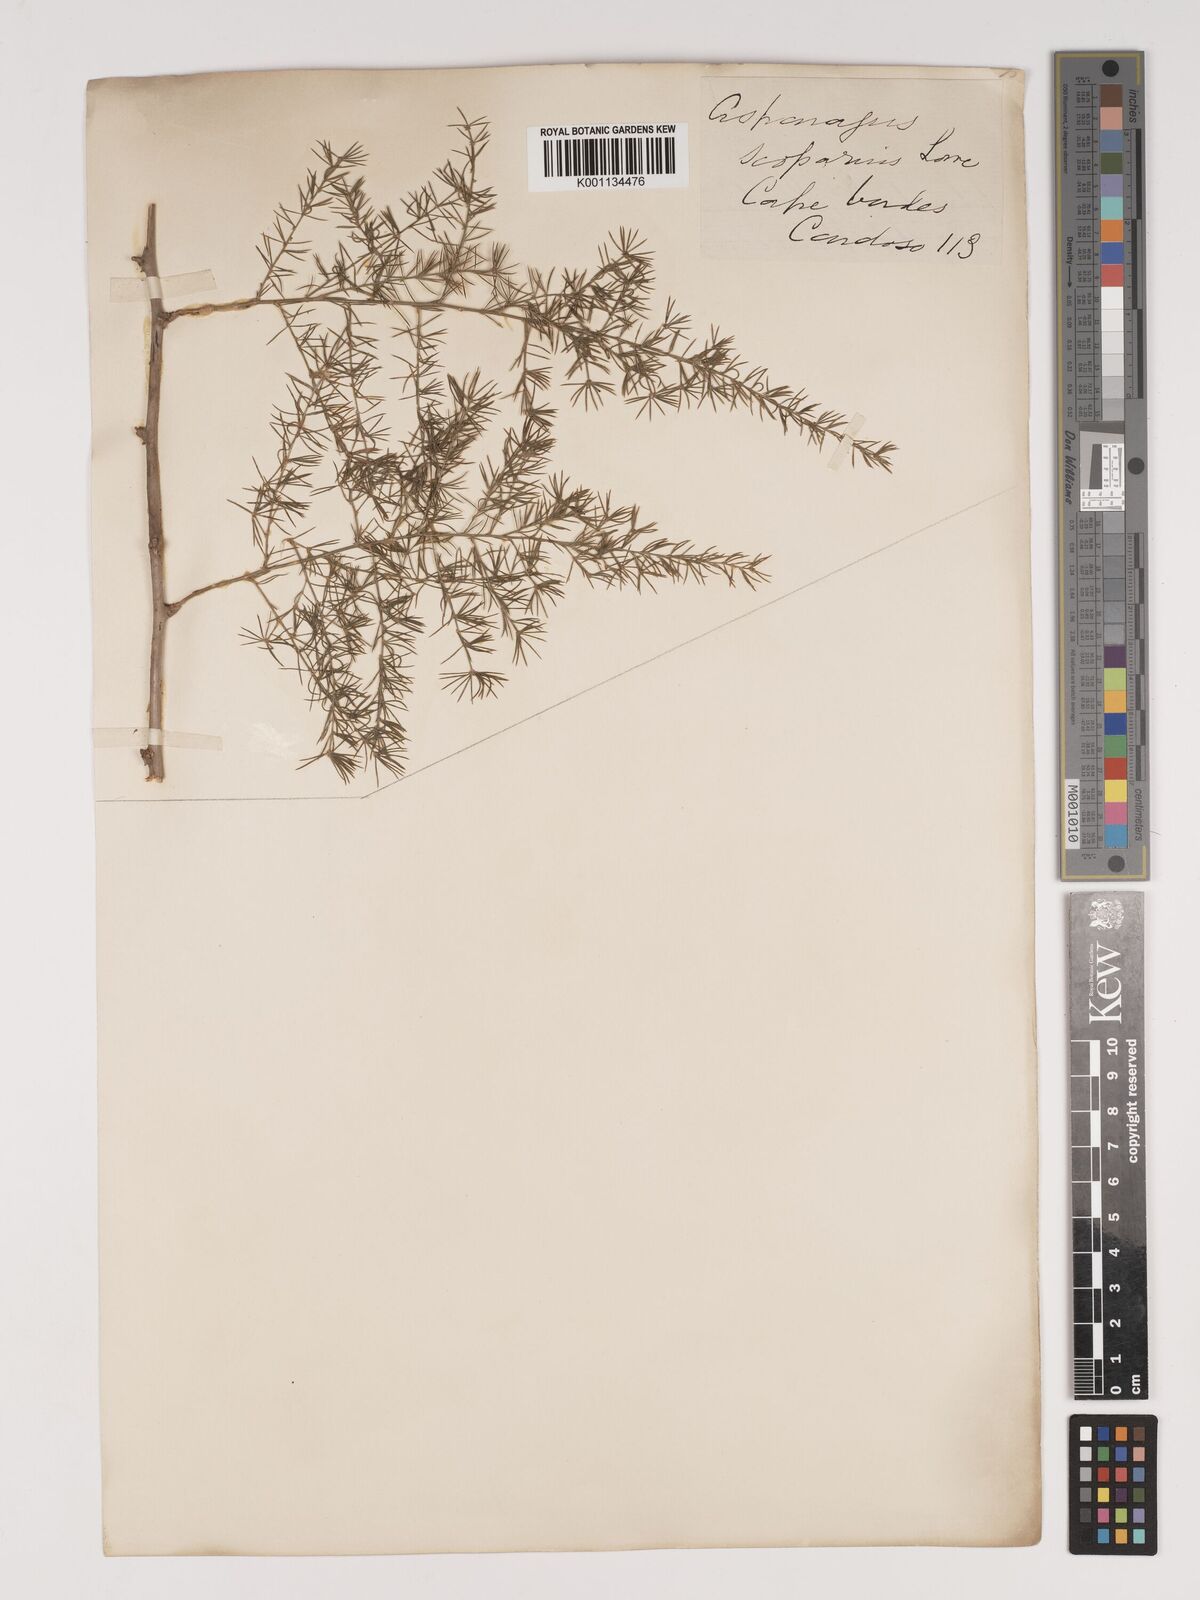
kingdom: Plantae
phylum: Tracheophyta
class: Liliopsida
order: Asparagales
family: Asparagaceae
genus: Asparagus
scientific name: Asparagus scoparius
